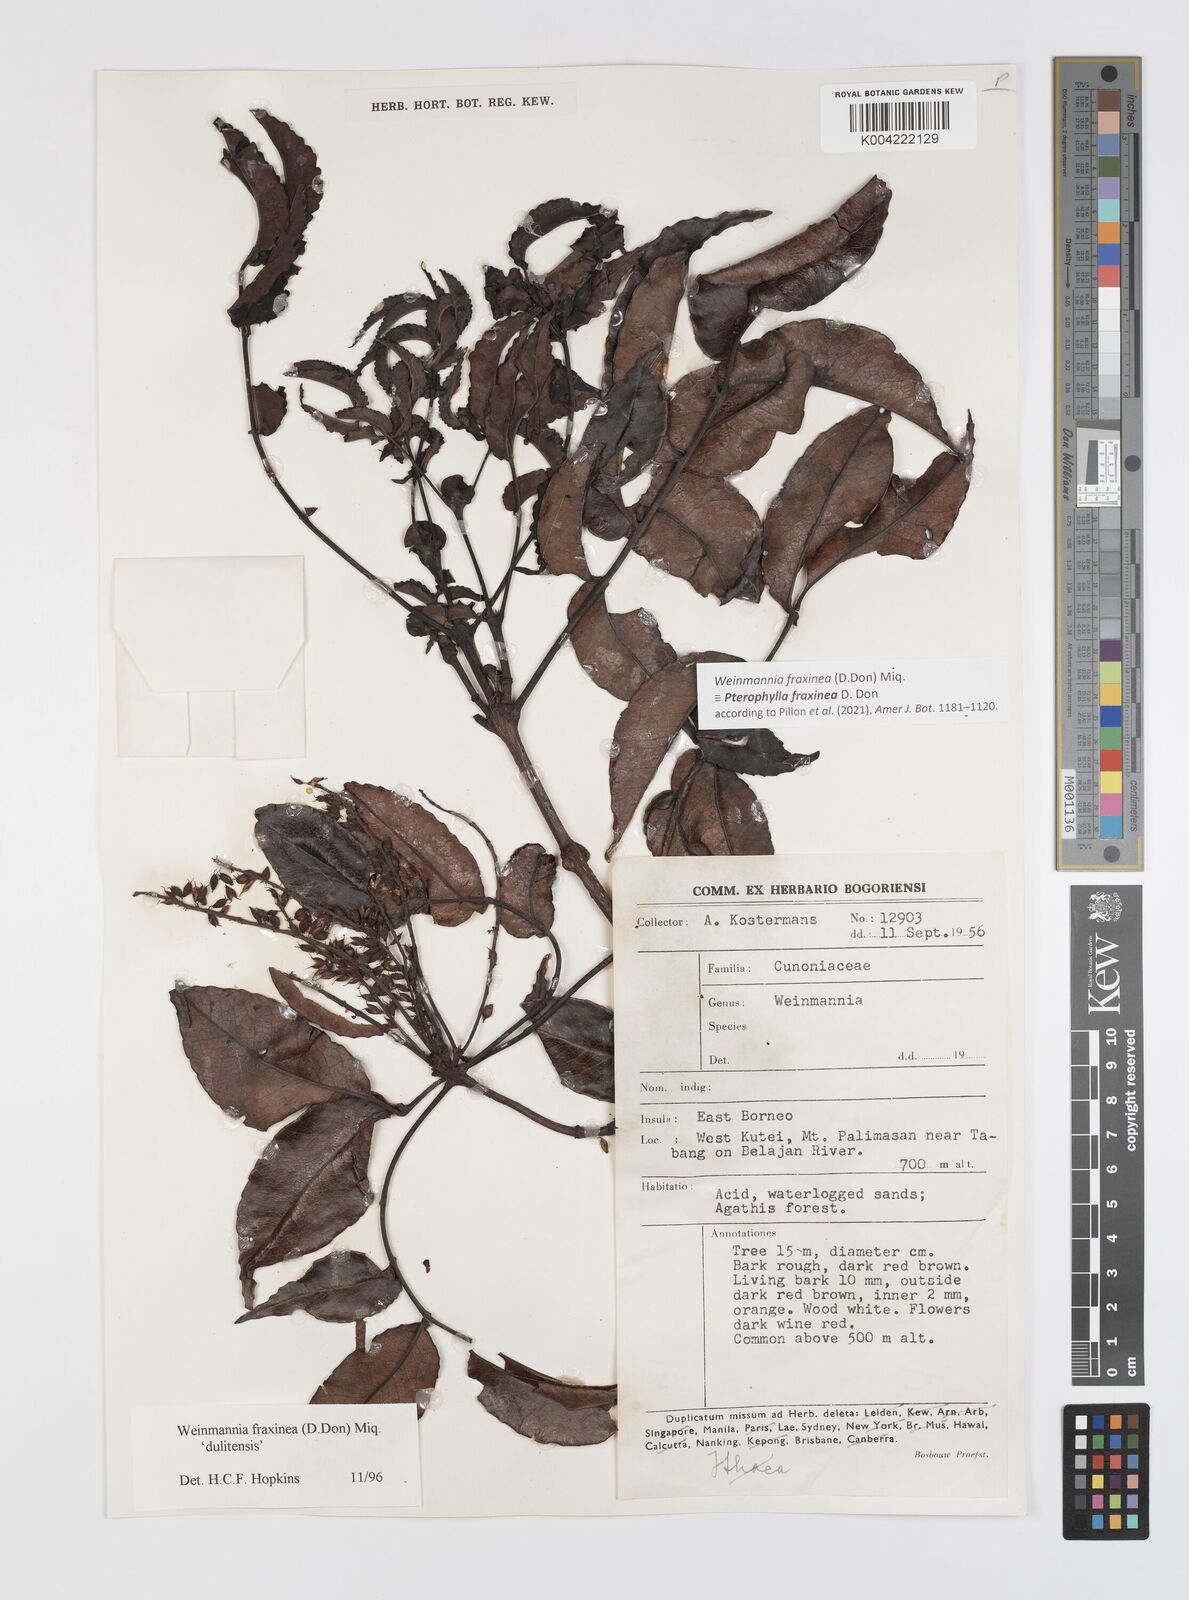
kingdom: Plantae
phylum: Tracheophyta
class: Magnoliopsida
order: Oxalidales
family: Cunoniaceae
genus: Pterophylla
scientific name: Pterophylla fraxinea
